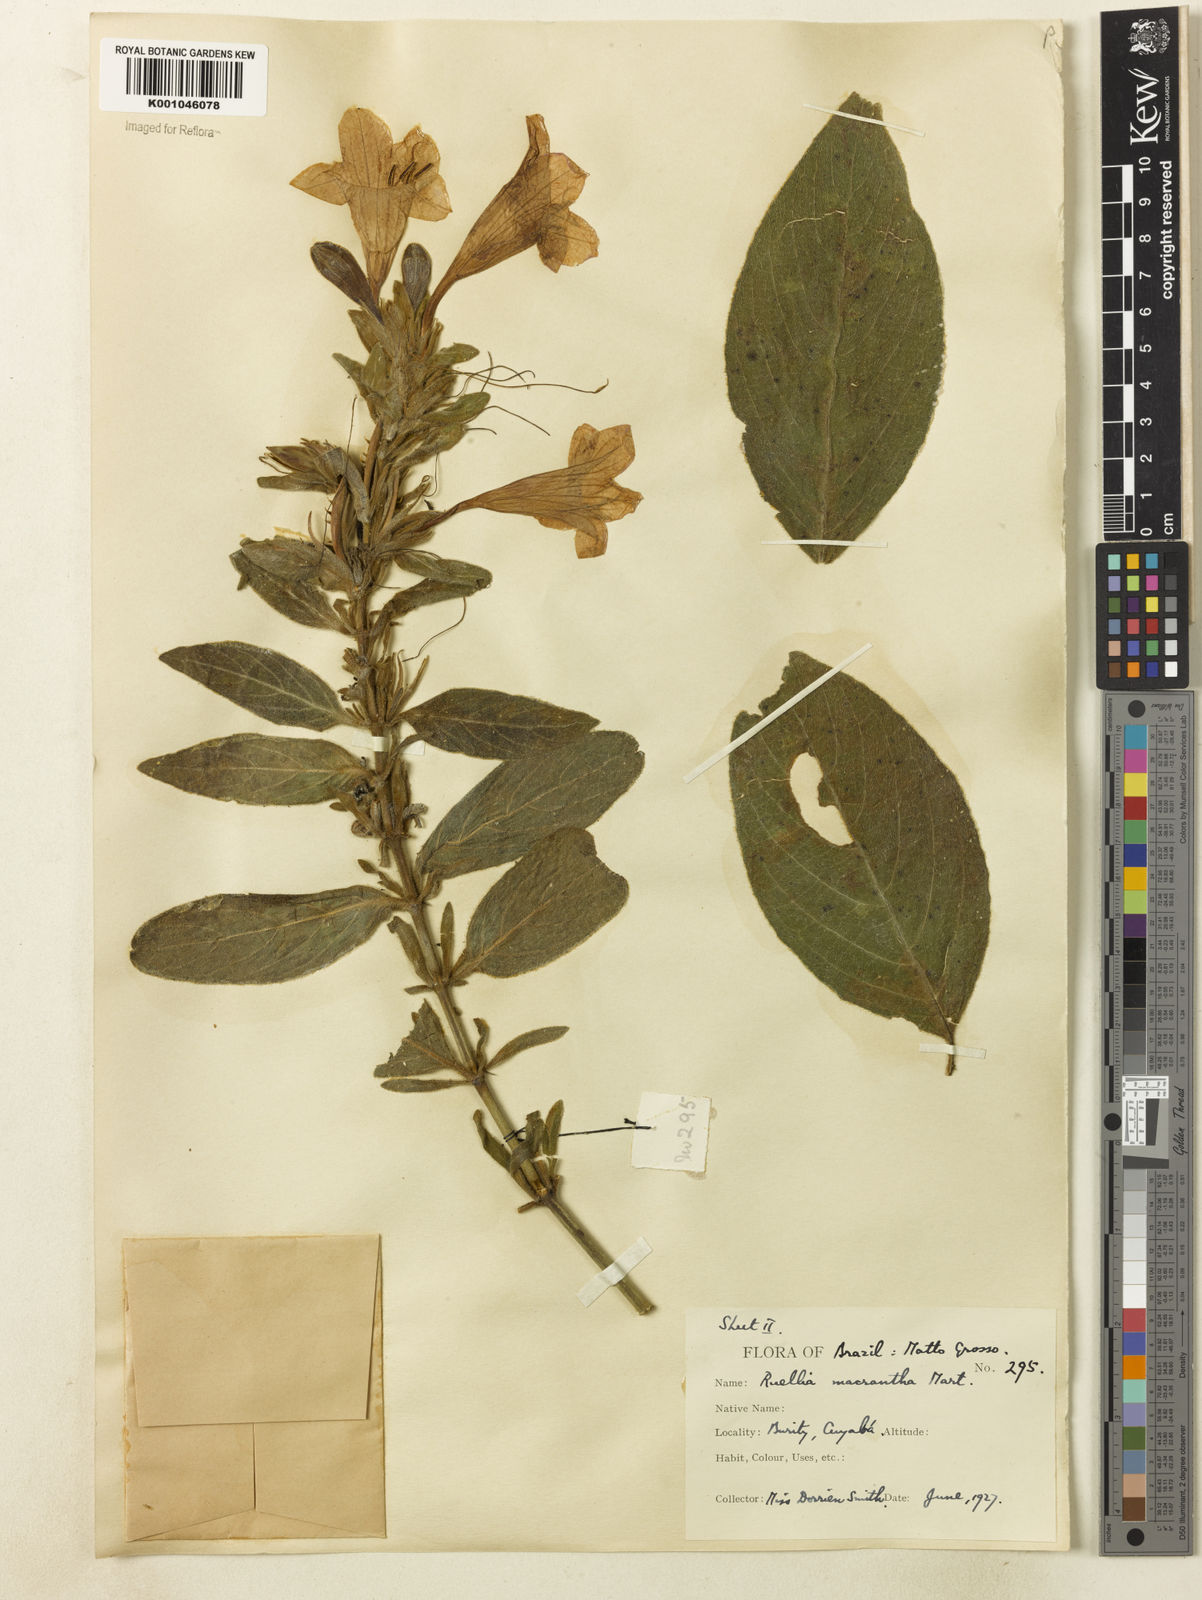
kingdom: Plantae
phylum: Tracheophyta
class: Magnoliopsida
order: Lamiales
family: Acanthaceae
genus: Ruellia
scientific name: Ruellia
